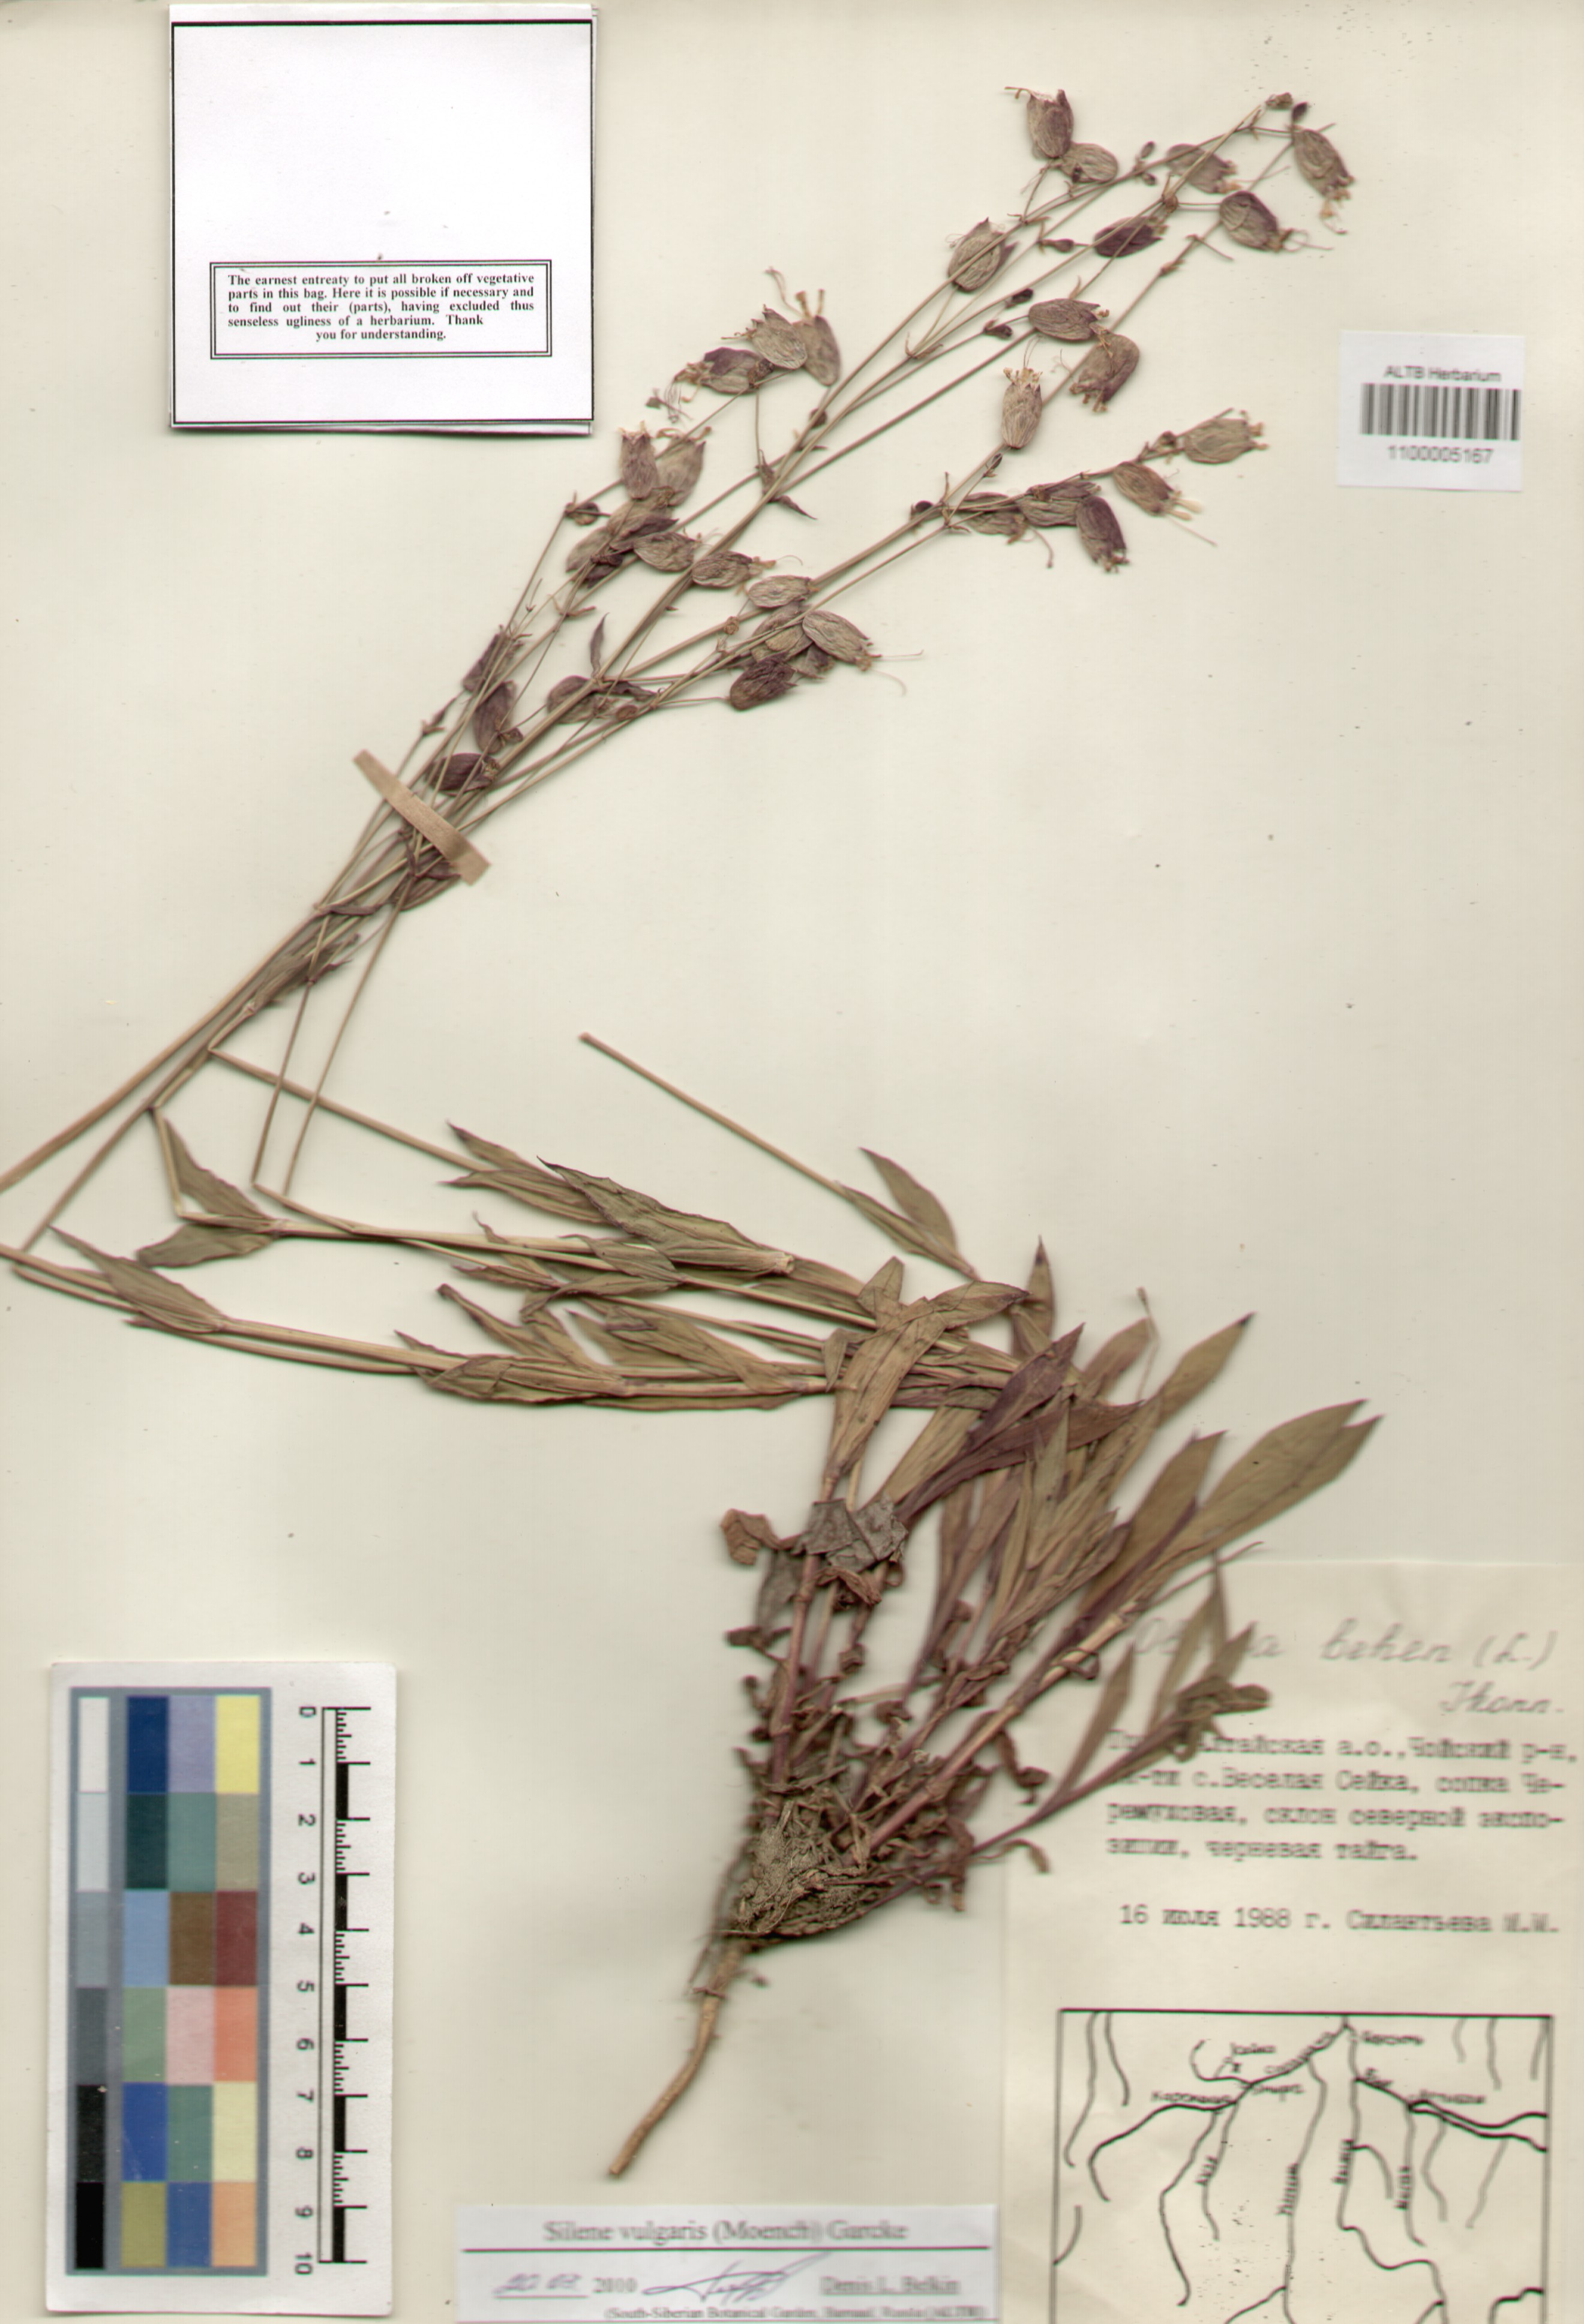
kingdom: Plantae
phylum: Tracheophyta
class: Magnoliopsida
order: Caryophyllales
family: Caryophyllaceae
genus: Silene
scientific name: Silene vulgaris
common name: Bladder campion
